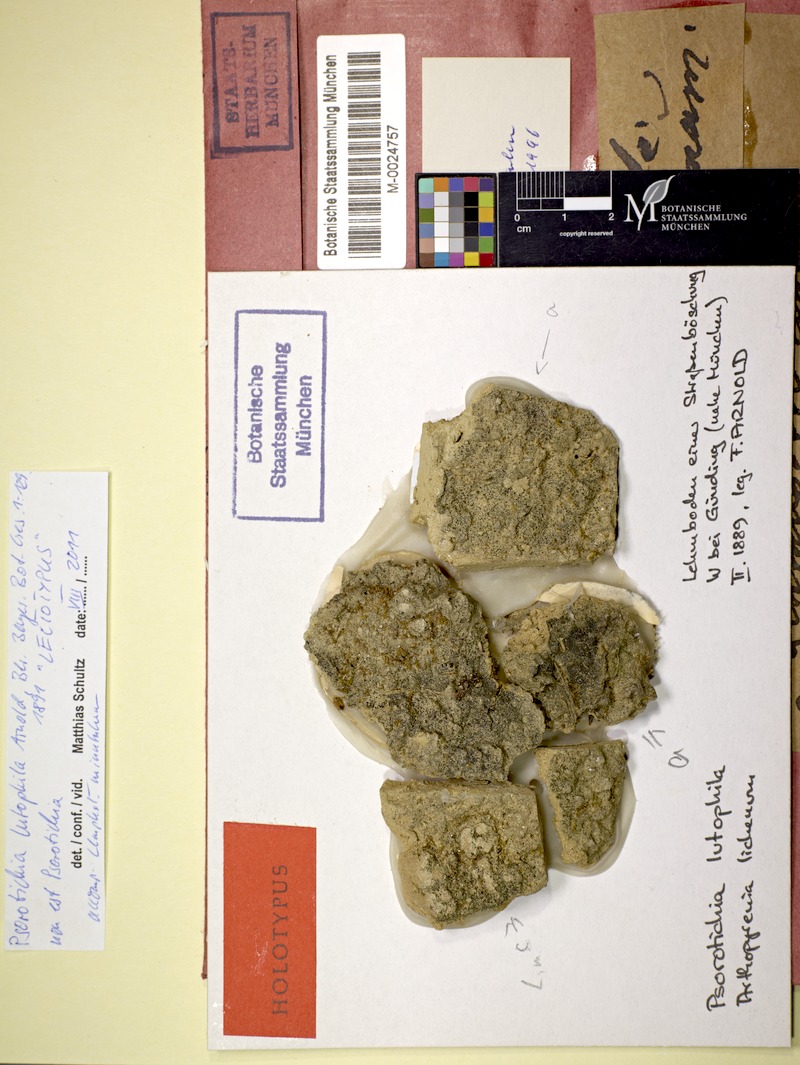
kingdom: Fungi
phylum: Ascomycota
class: Lichinomycetes
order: Lichinales
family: Lichinaceae
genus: Psorotichia
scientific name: Psorotichia lutophila
